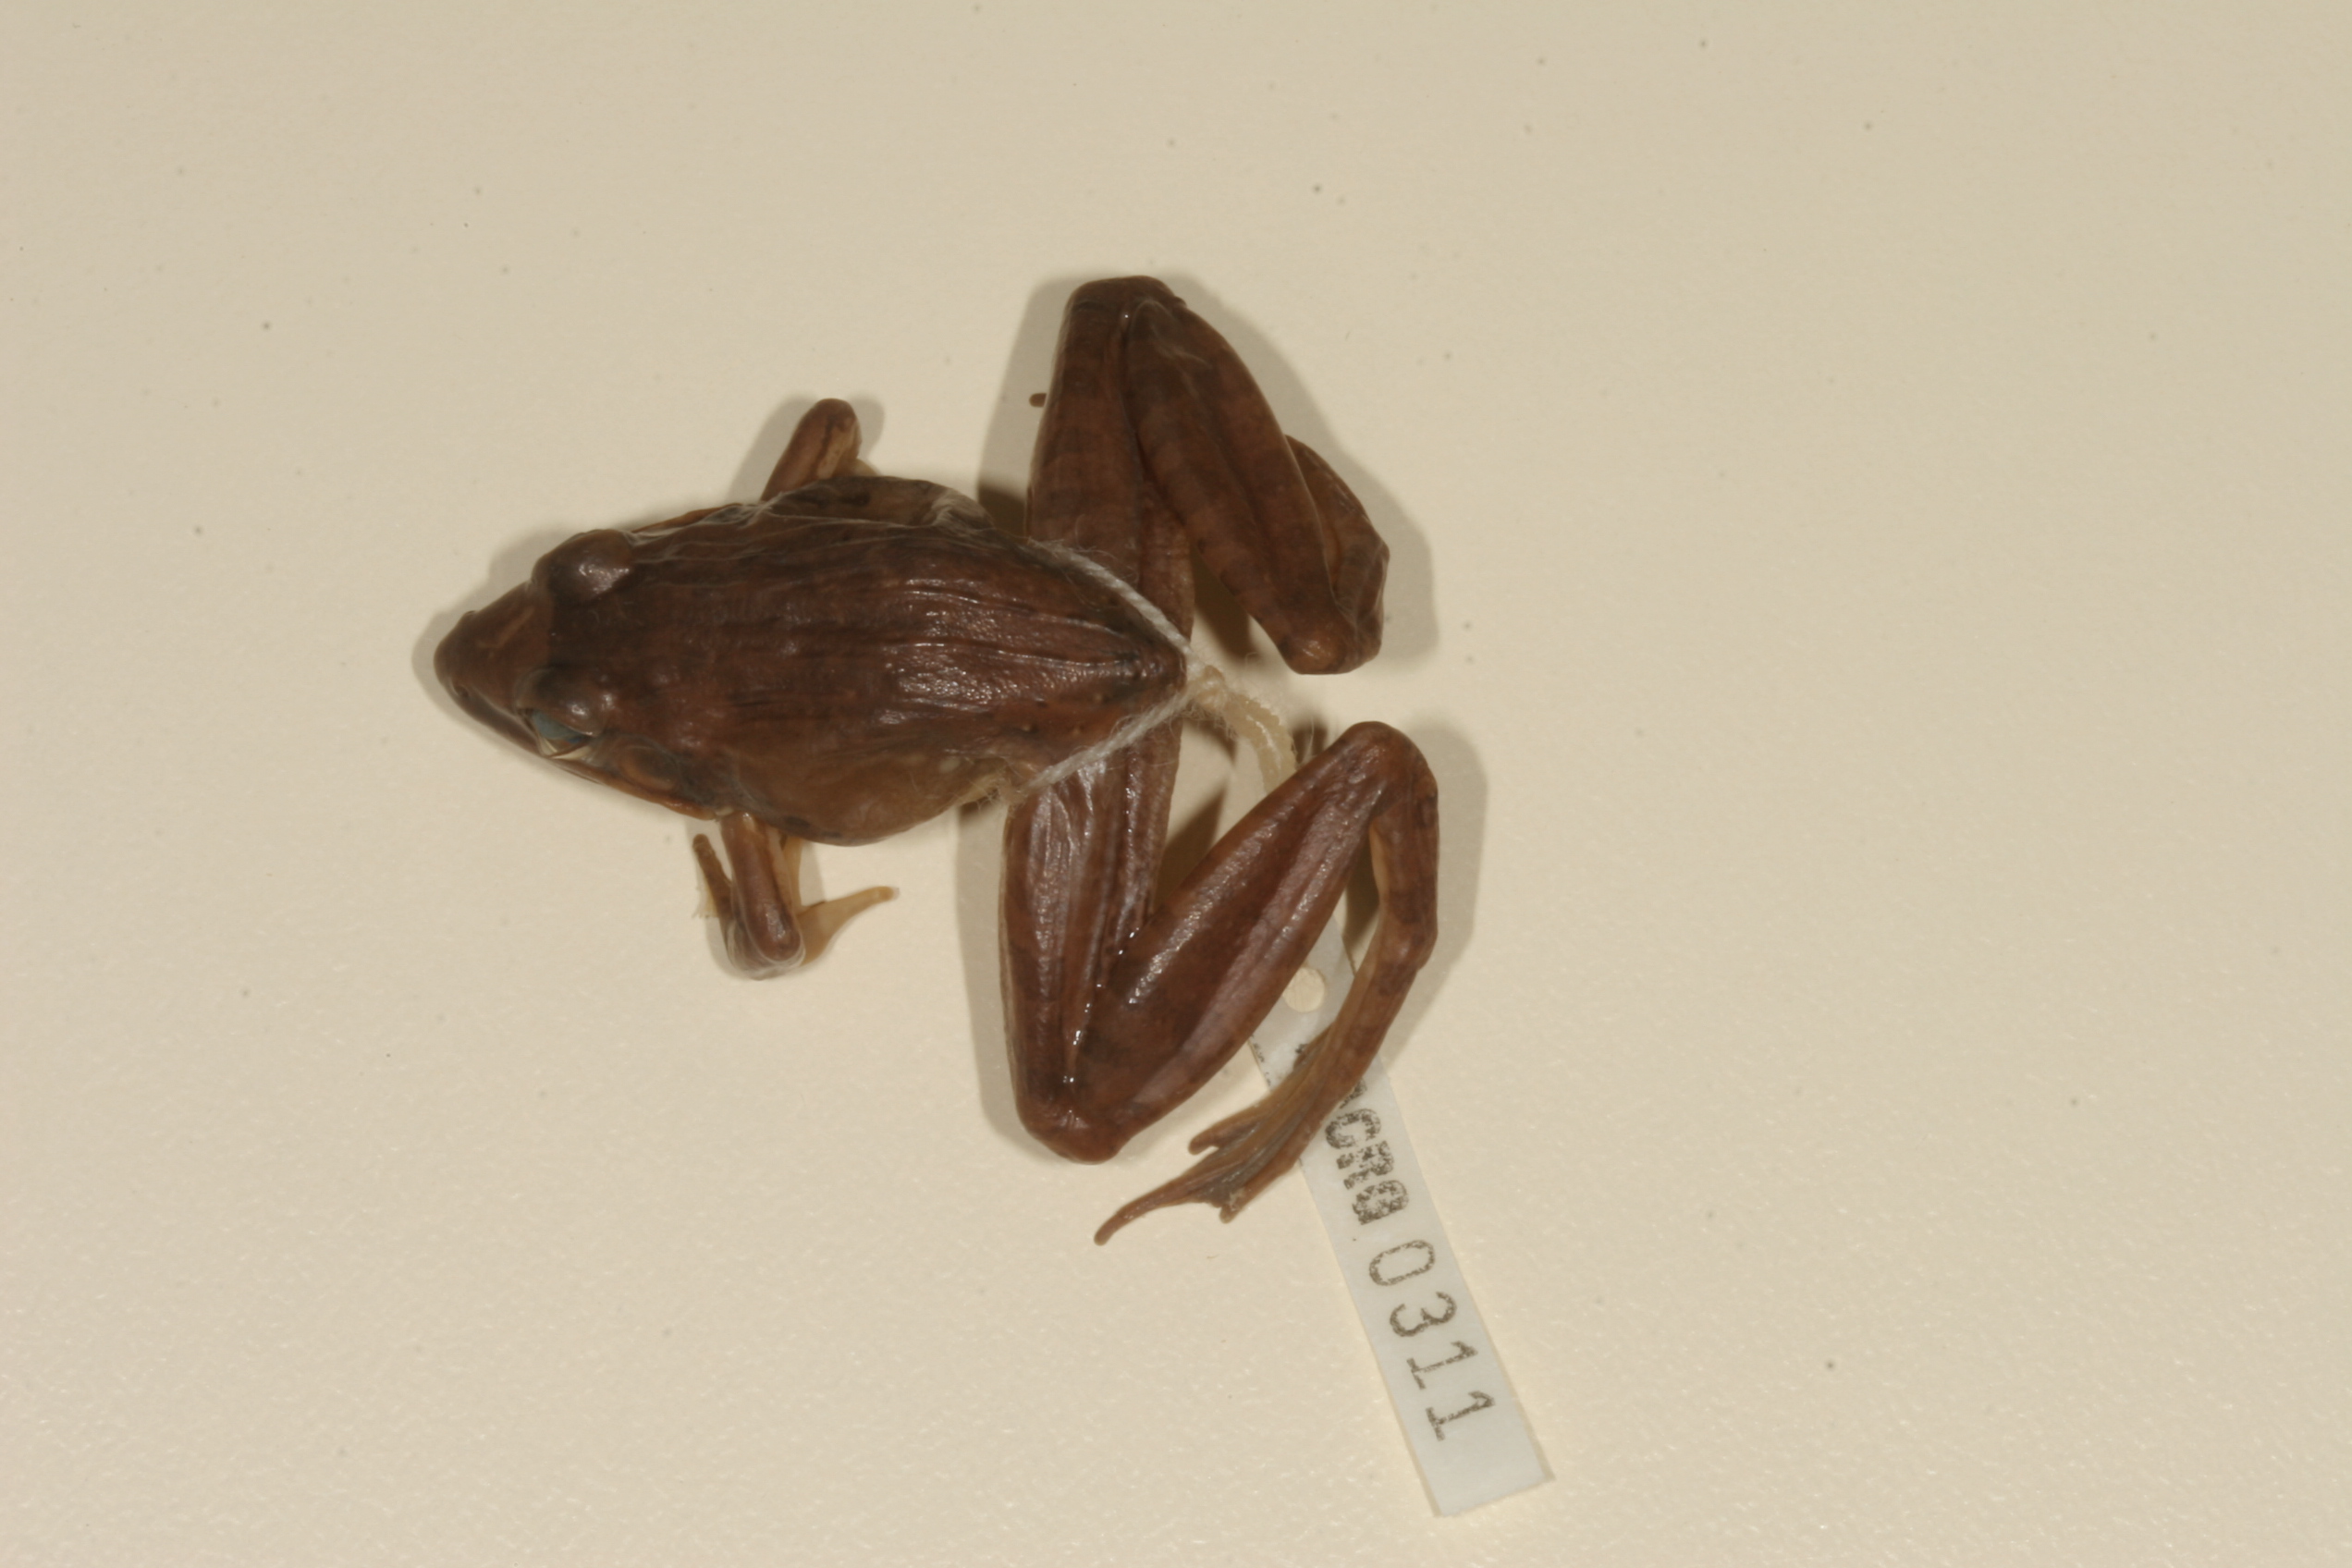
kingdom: Animalia
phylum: Chordata
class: Amphibia
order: Anura
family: Ptychadenidae
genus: Ptychadena
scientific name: Ptychadena anchietae
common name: Anchieta's ridged frog
